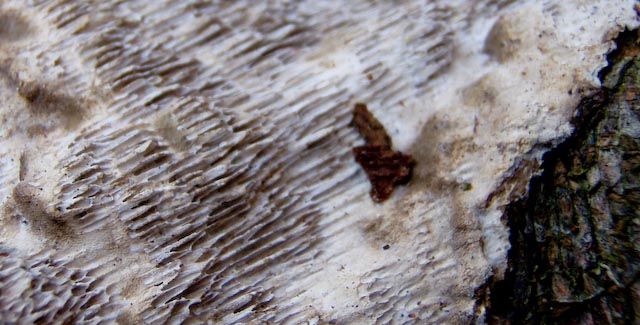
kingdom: Fungi
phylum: Basidiomycota
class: Agaricomycetes
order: Polyporales
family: Polyporaceae
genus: Podofomes
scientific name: Podofomes mollis
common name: blød begporesvamp
